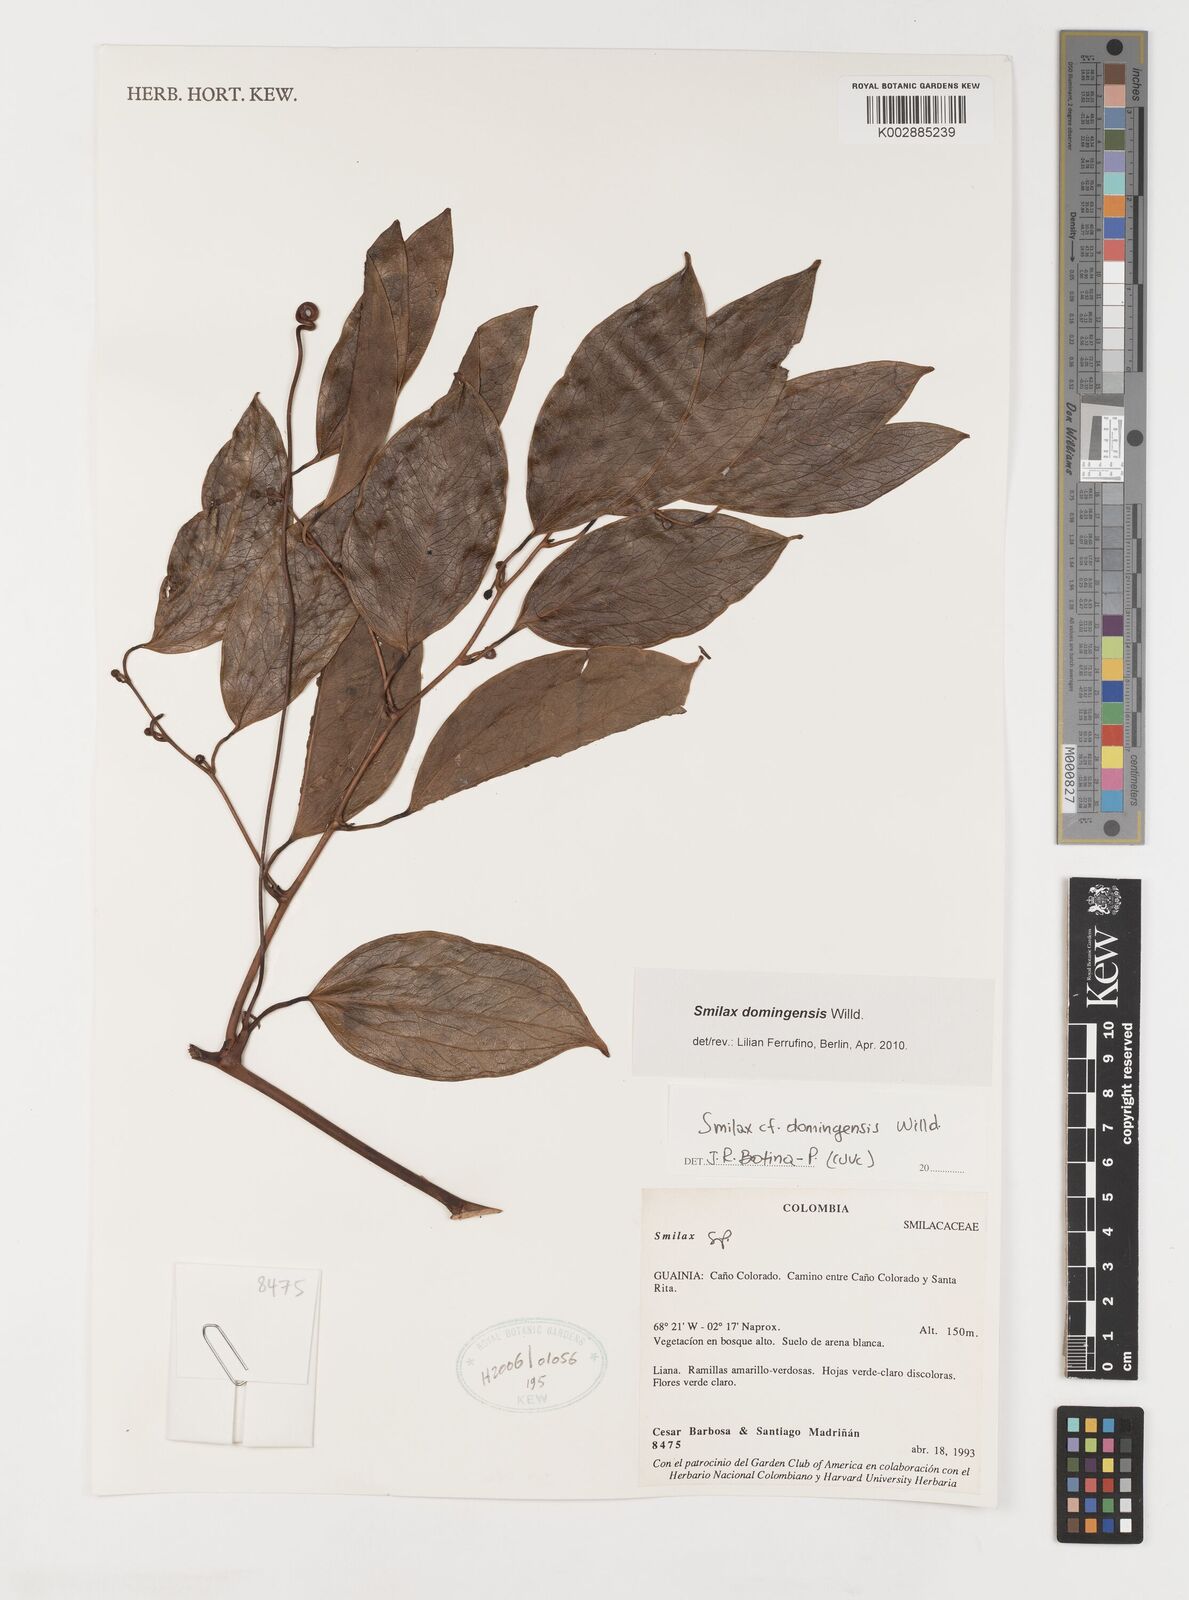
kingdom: Plantae
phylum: Tracheophyta
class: Liliopsida
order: Liliales
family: Smilacaceae
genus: Smilax
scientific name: Smilax domingensis
